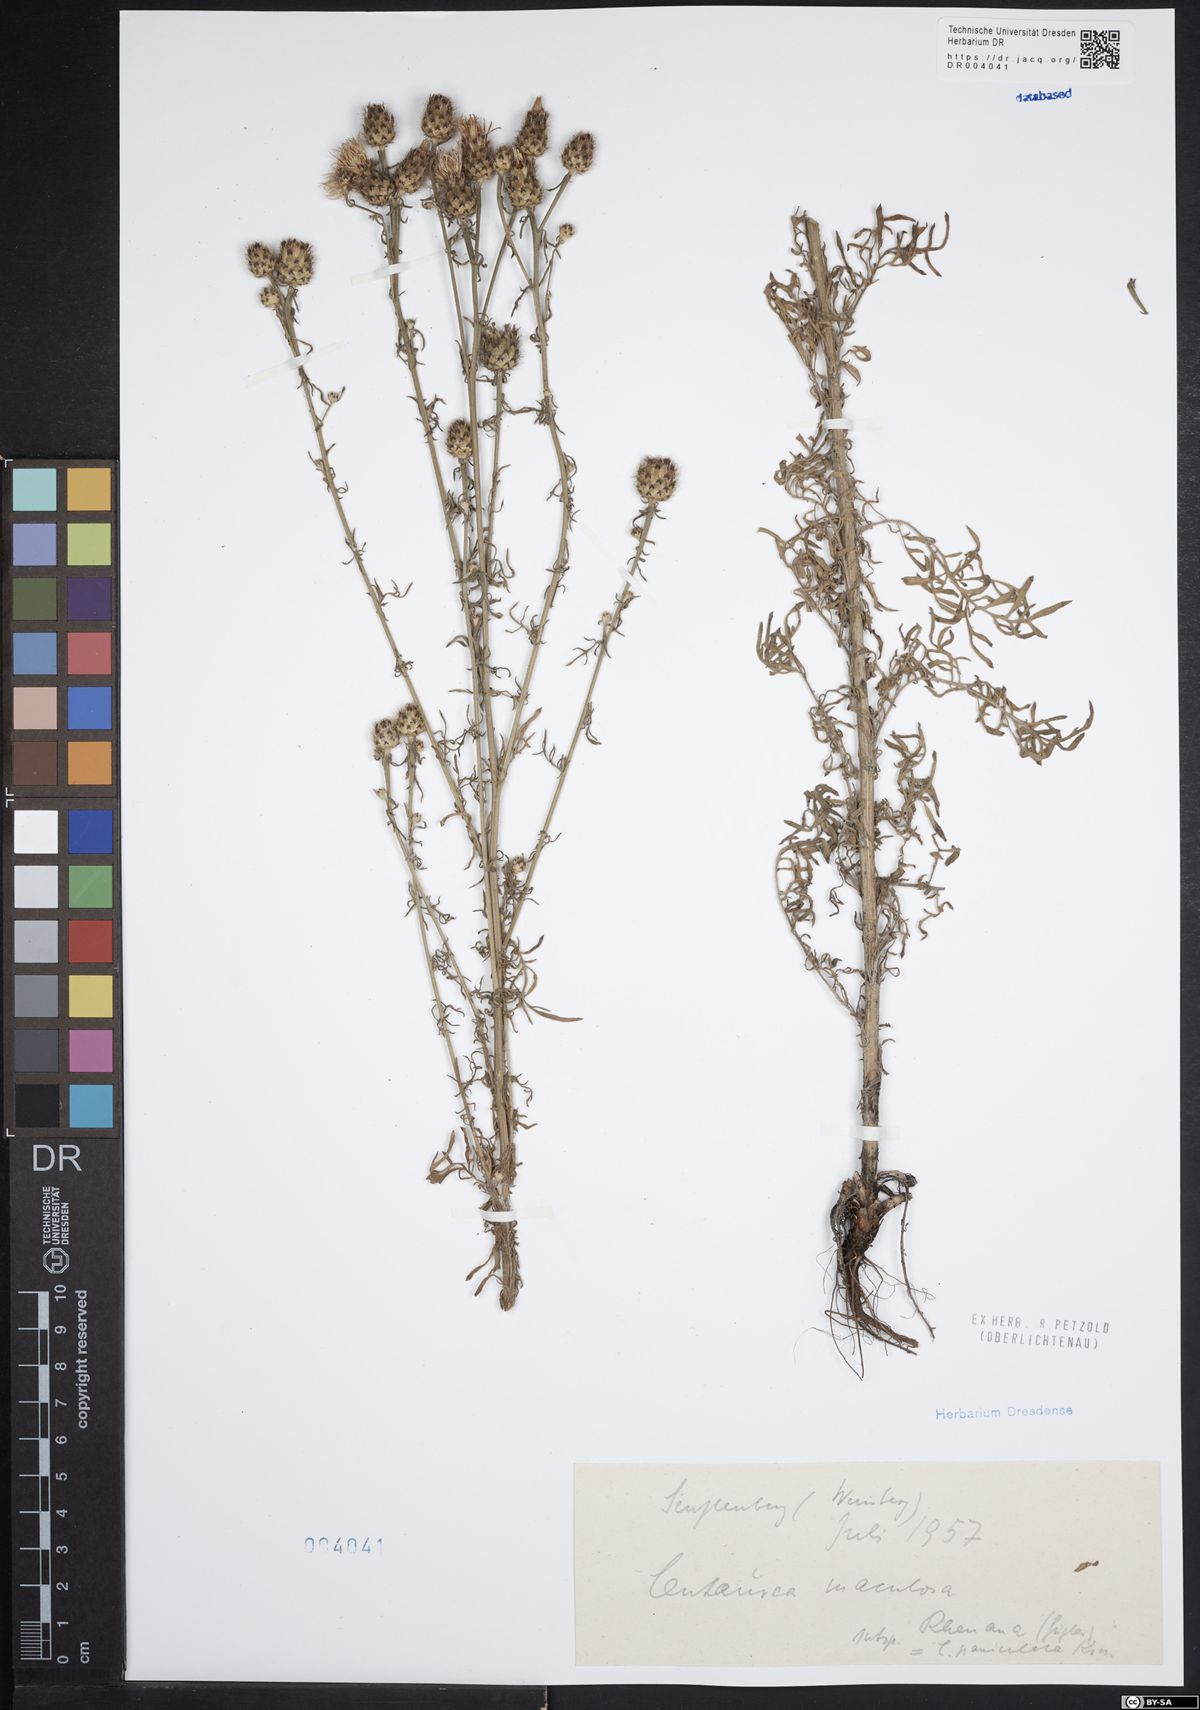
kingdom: Plantae
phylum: Tracheophyta
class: Magnoliopsida
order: Asterales
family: Asteraceae
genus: Centaurea
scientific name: Centaurea stoebe
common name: Spotted knapweed
